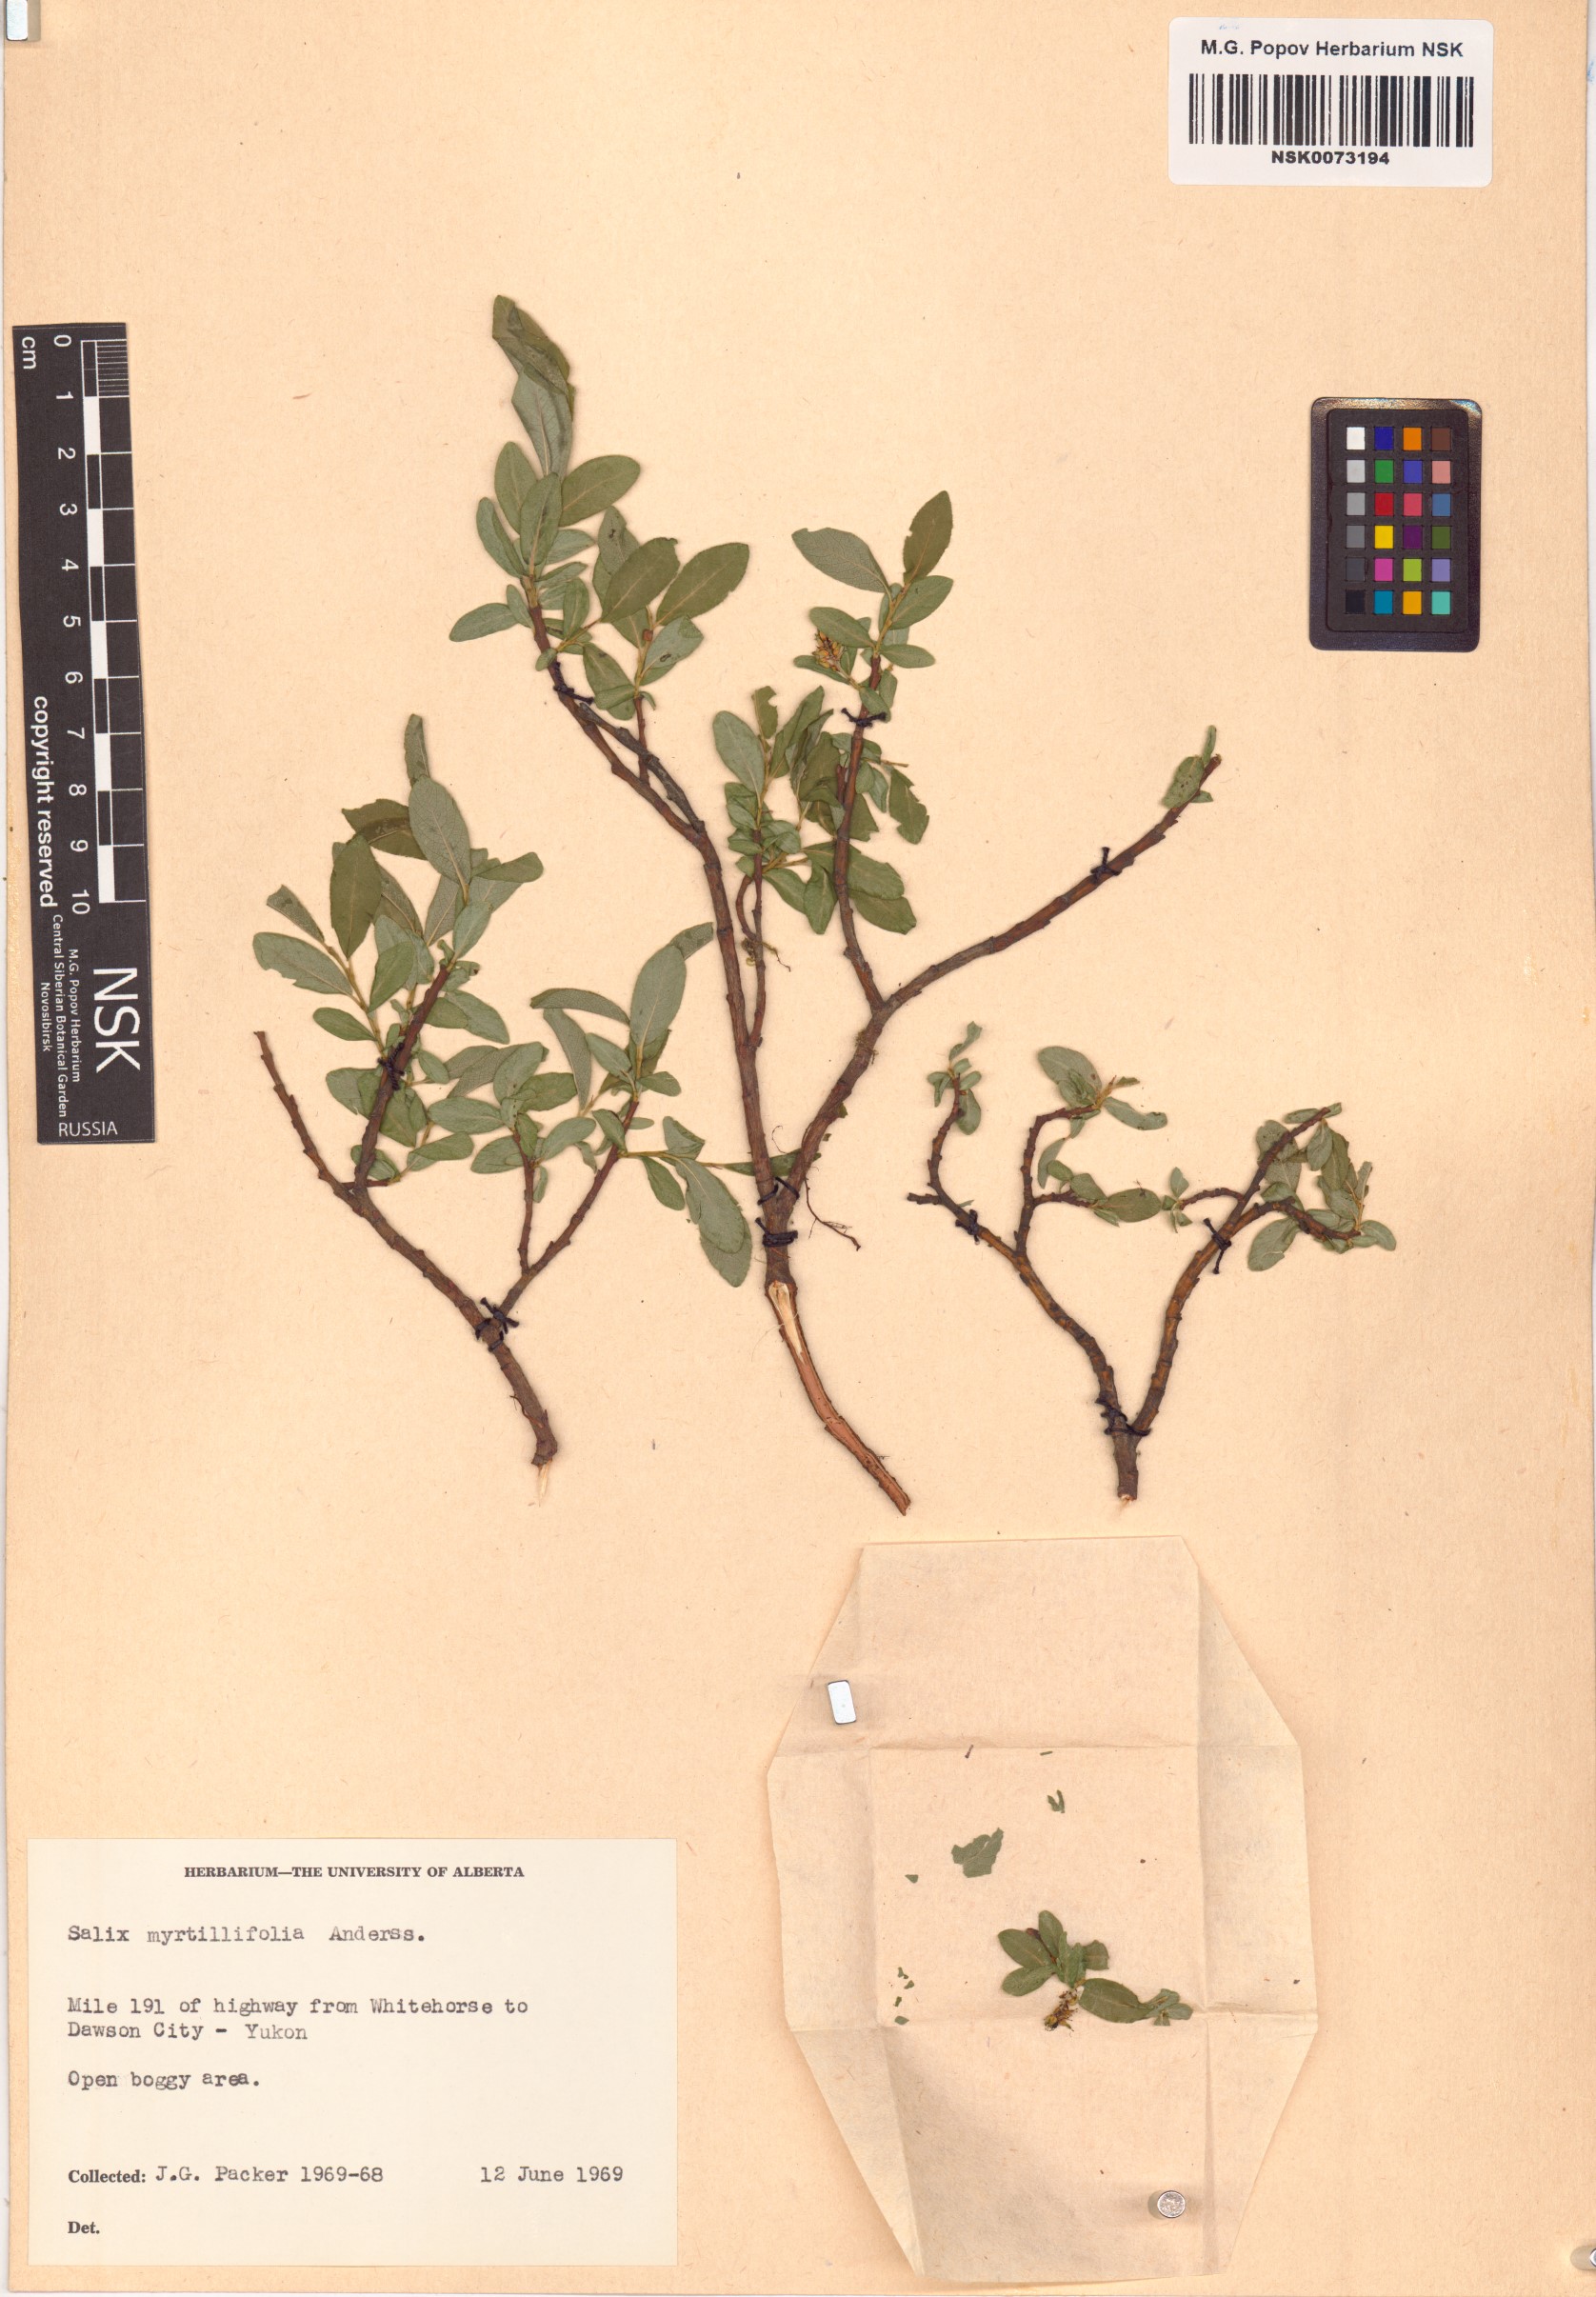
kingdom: Plantae
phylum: Tracheophyta
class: Magnoliopsida
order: Malpighiales
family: Salicaceae
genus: Salix
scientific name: Salix myrtillifolia
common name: Bilberry willow
